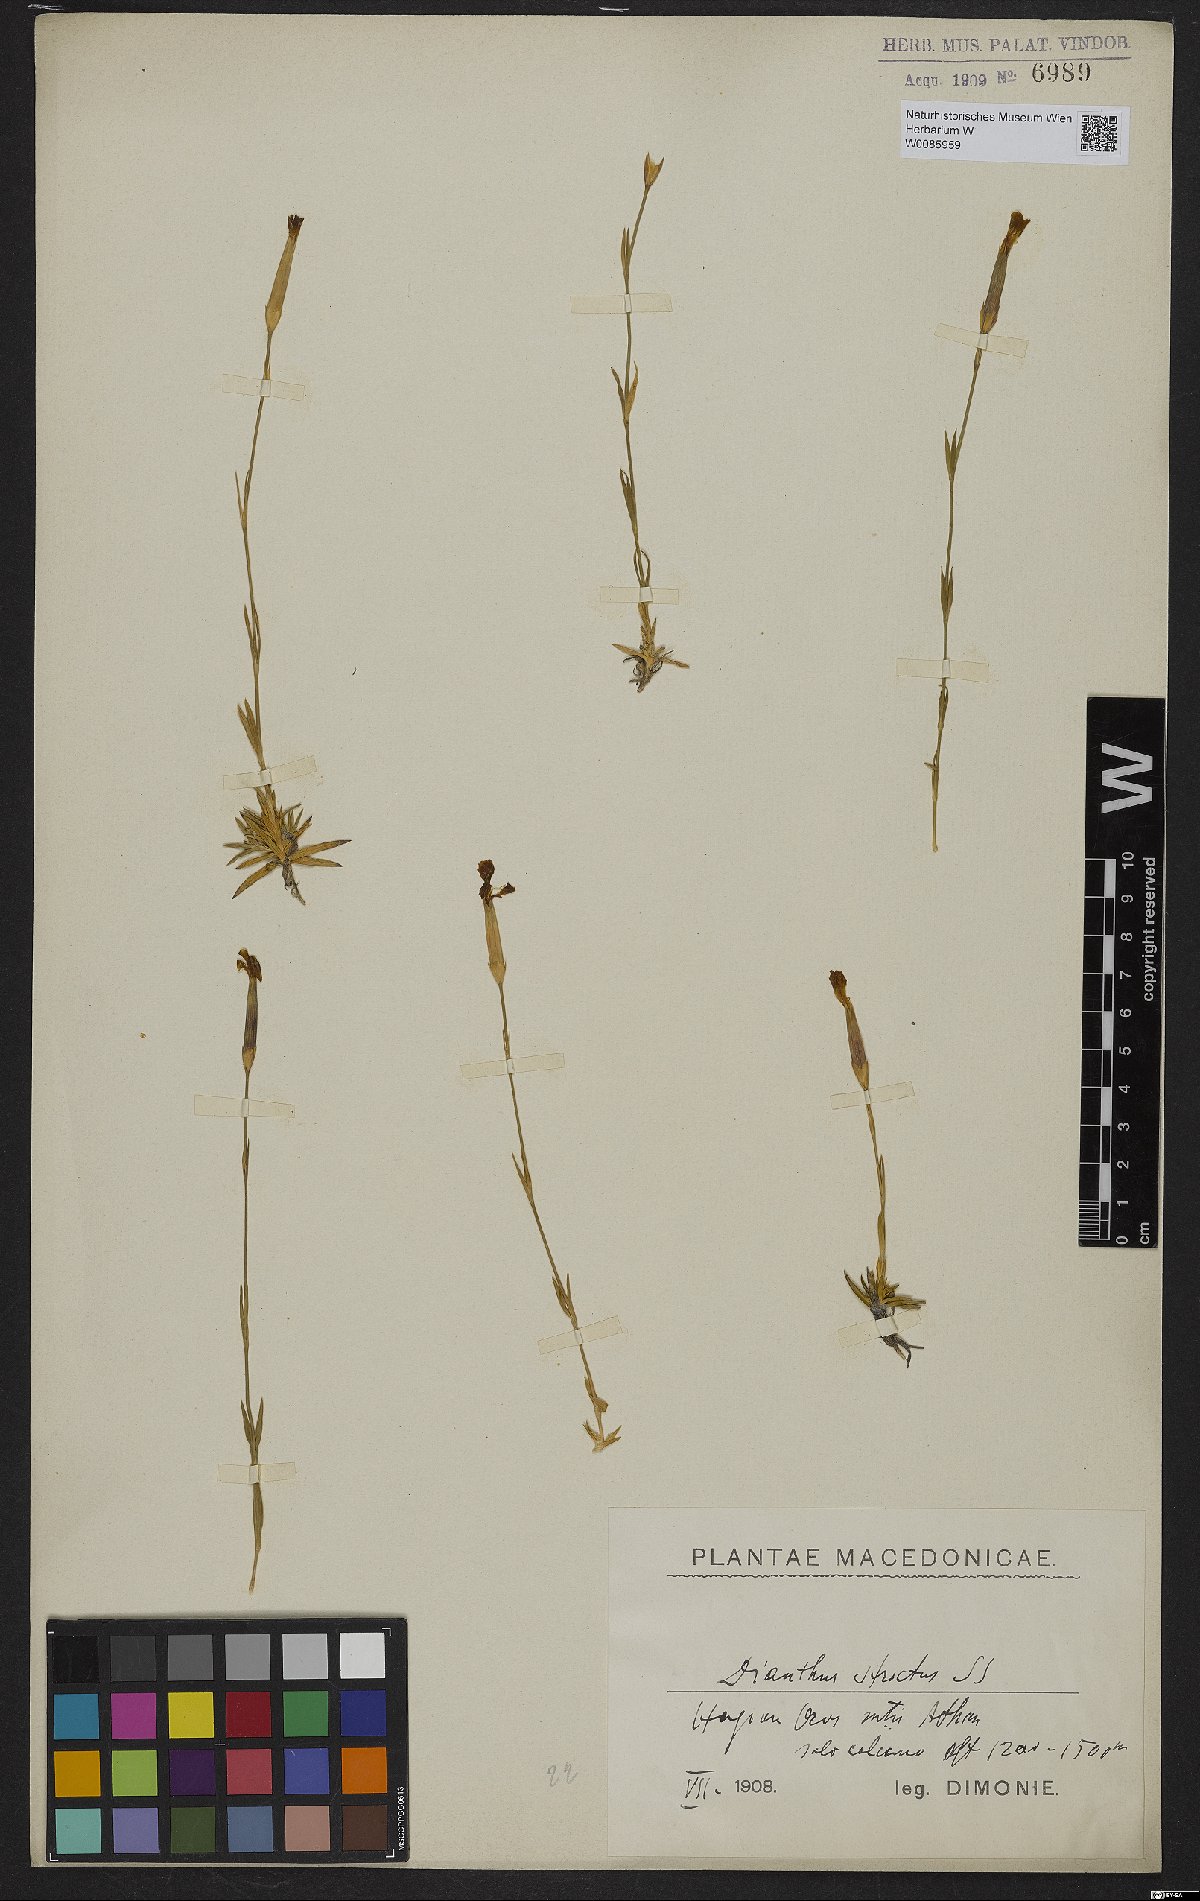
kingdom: Plantae
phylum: Tracheophyta
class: Magnoliopsida
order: Caryophyllales
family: Caryophyllaceae
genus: Dianthus
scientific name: Dianthus petraeus
